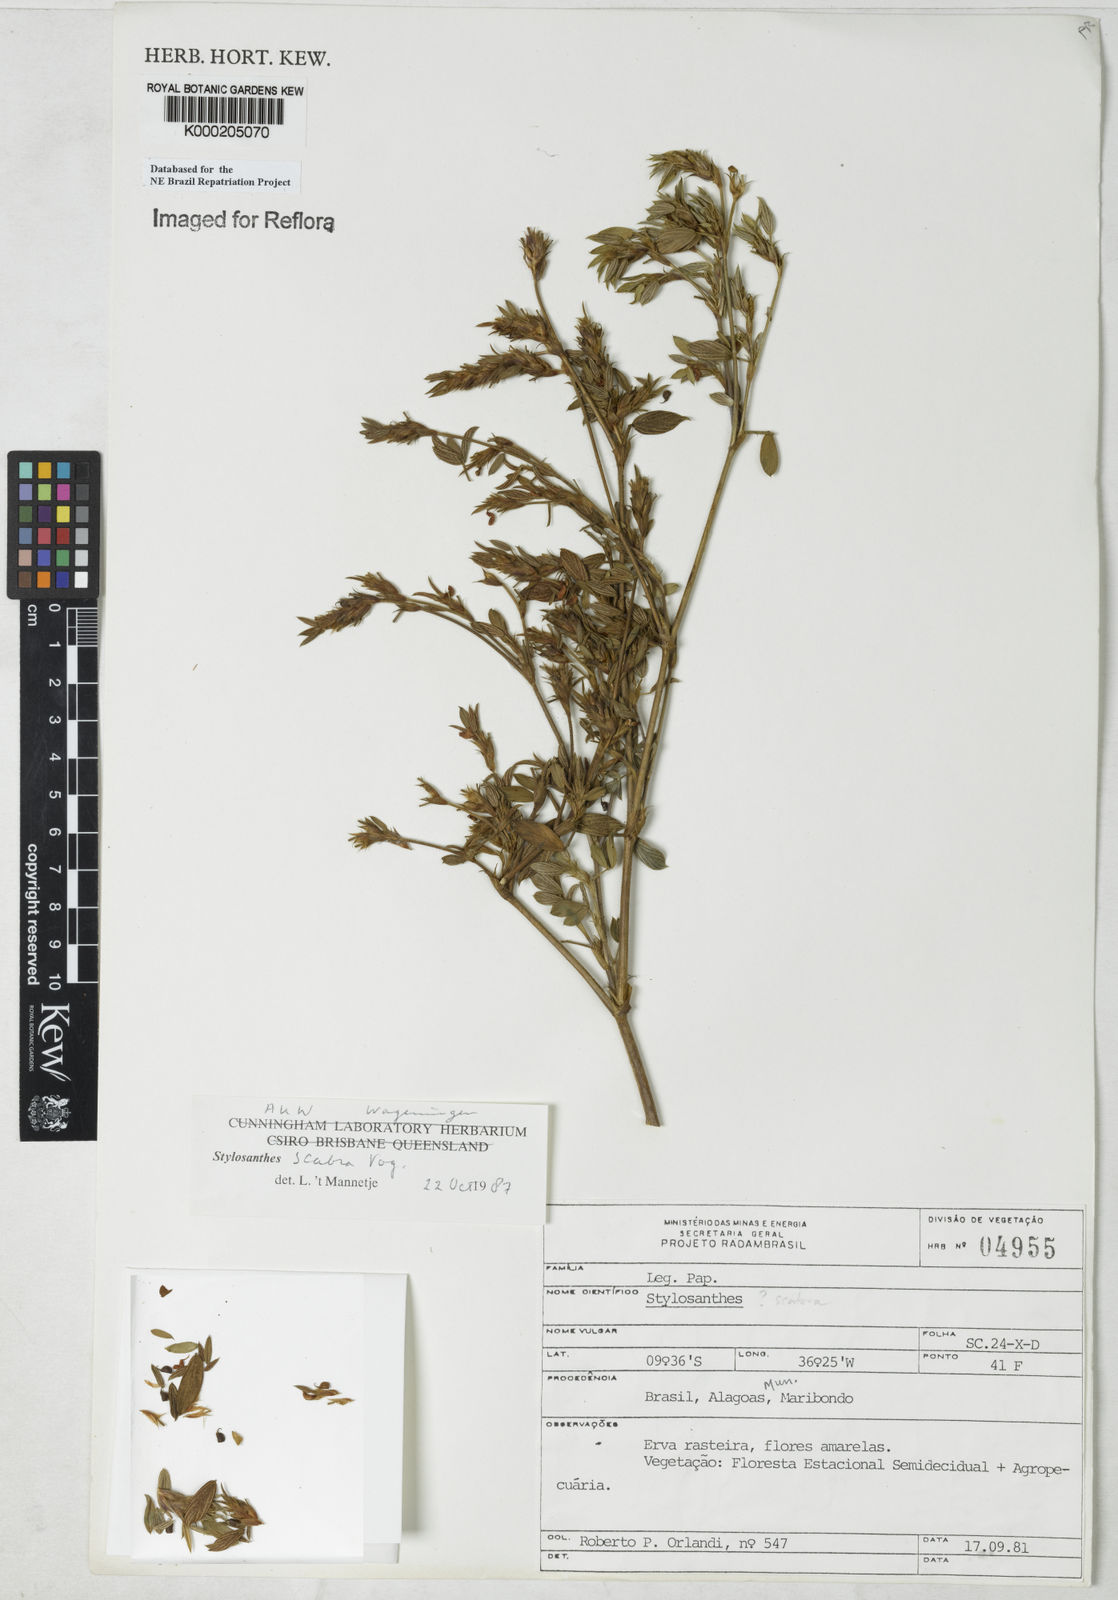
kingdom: Plantae
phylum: Tracheophyta
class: Magnoliopsida
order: Fabales
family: Fabaceae
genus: Stylosanthes
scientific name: Stylosanthes scabra
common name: Pencilflower
